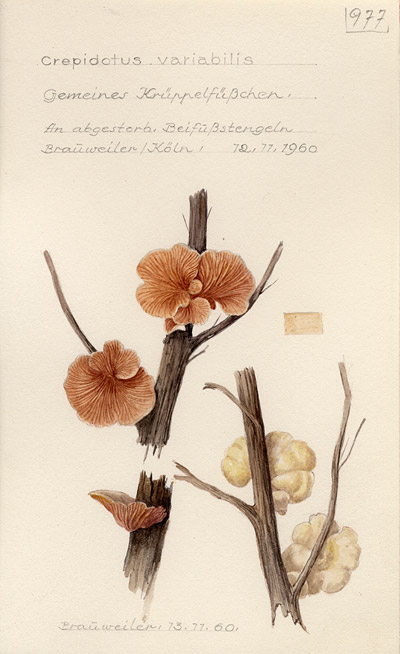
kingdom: Fungi
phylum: Basidiomycota
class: Agaricomycetes
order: Agaricales
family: Crepidotaceae
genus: Crepidotus
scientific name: Crepidotus variabilis
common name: Variable oysterling
